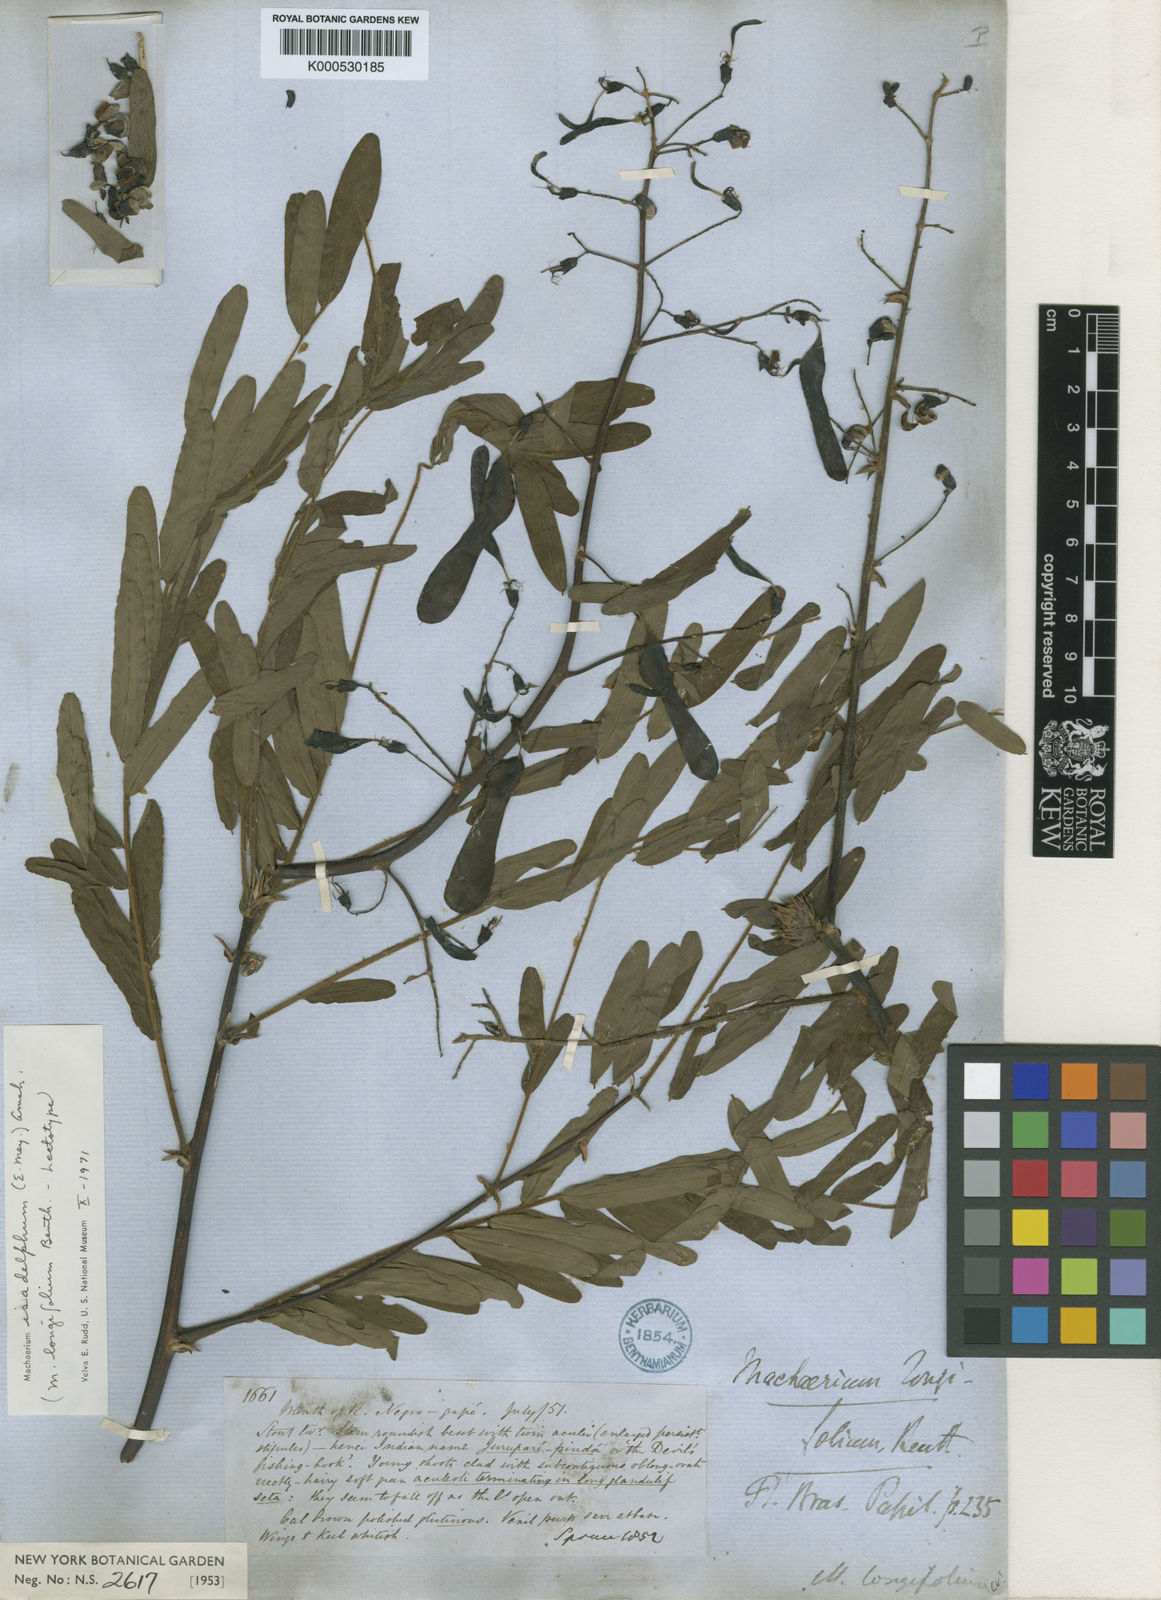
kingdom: Plantae
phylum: Tracheophyta
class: Magnoliopsida
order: Fabales
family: Fabaceae
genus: Machaerium
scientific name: Machaerium isadelphum
